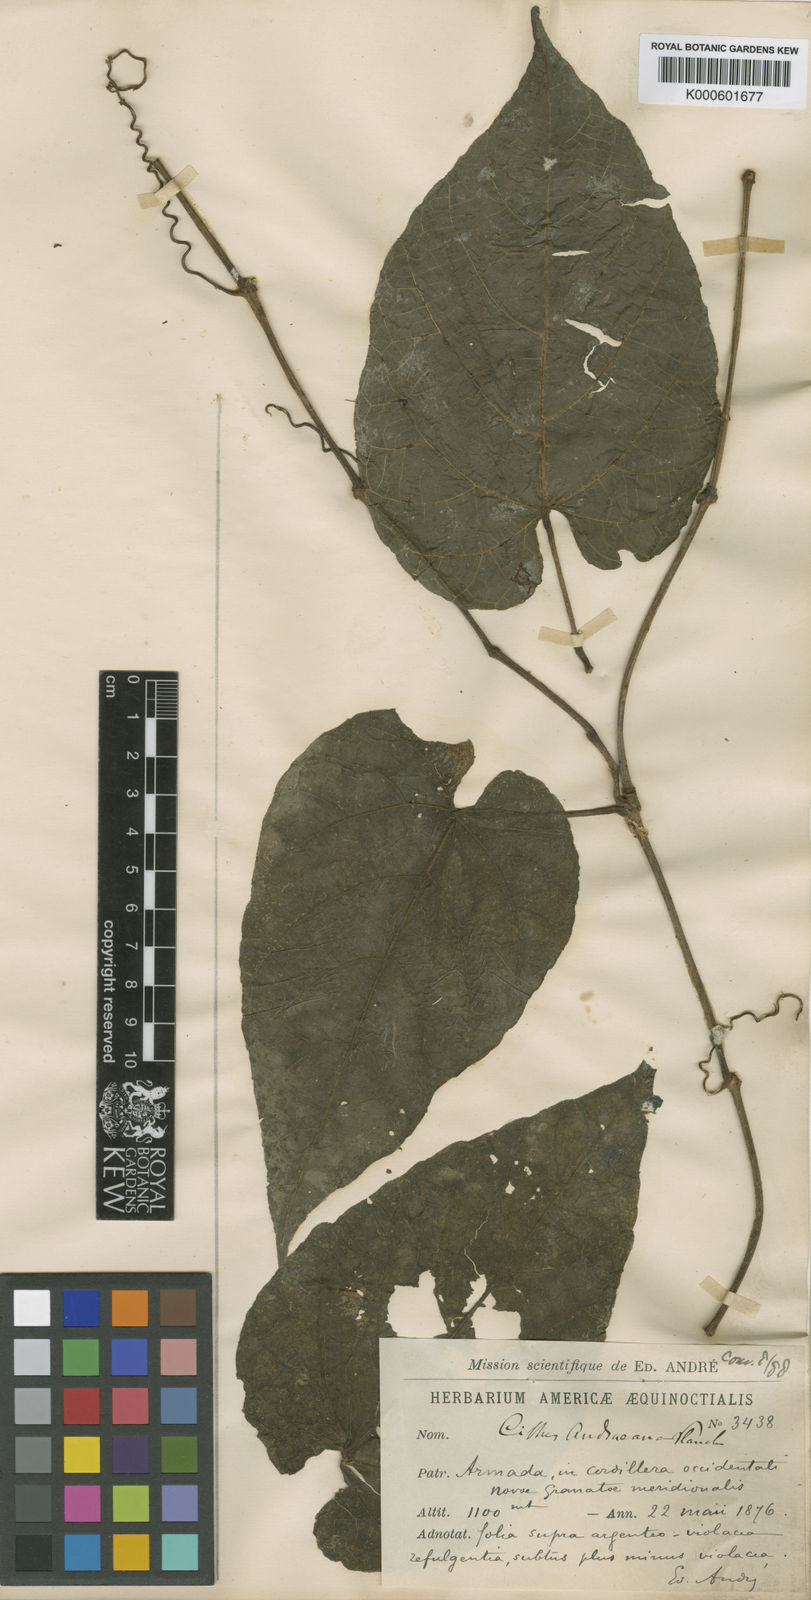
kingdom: Plantae
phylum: Tracheophyta
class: Magnoliopsida
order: Vitales
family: Vitaceae
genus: Cissus
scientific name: Cissus verticillata
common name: Princess vine
